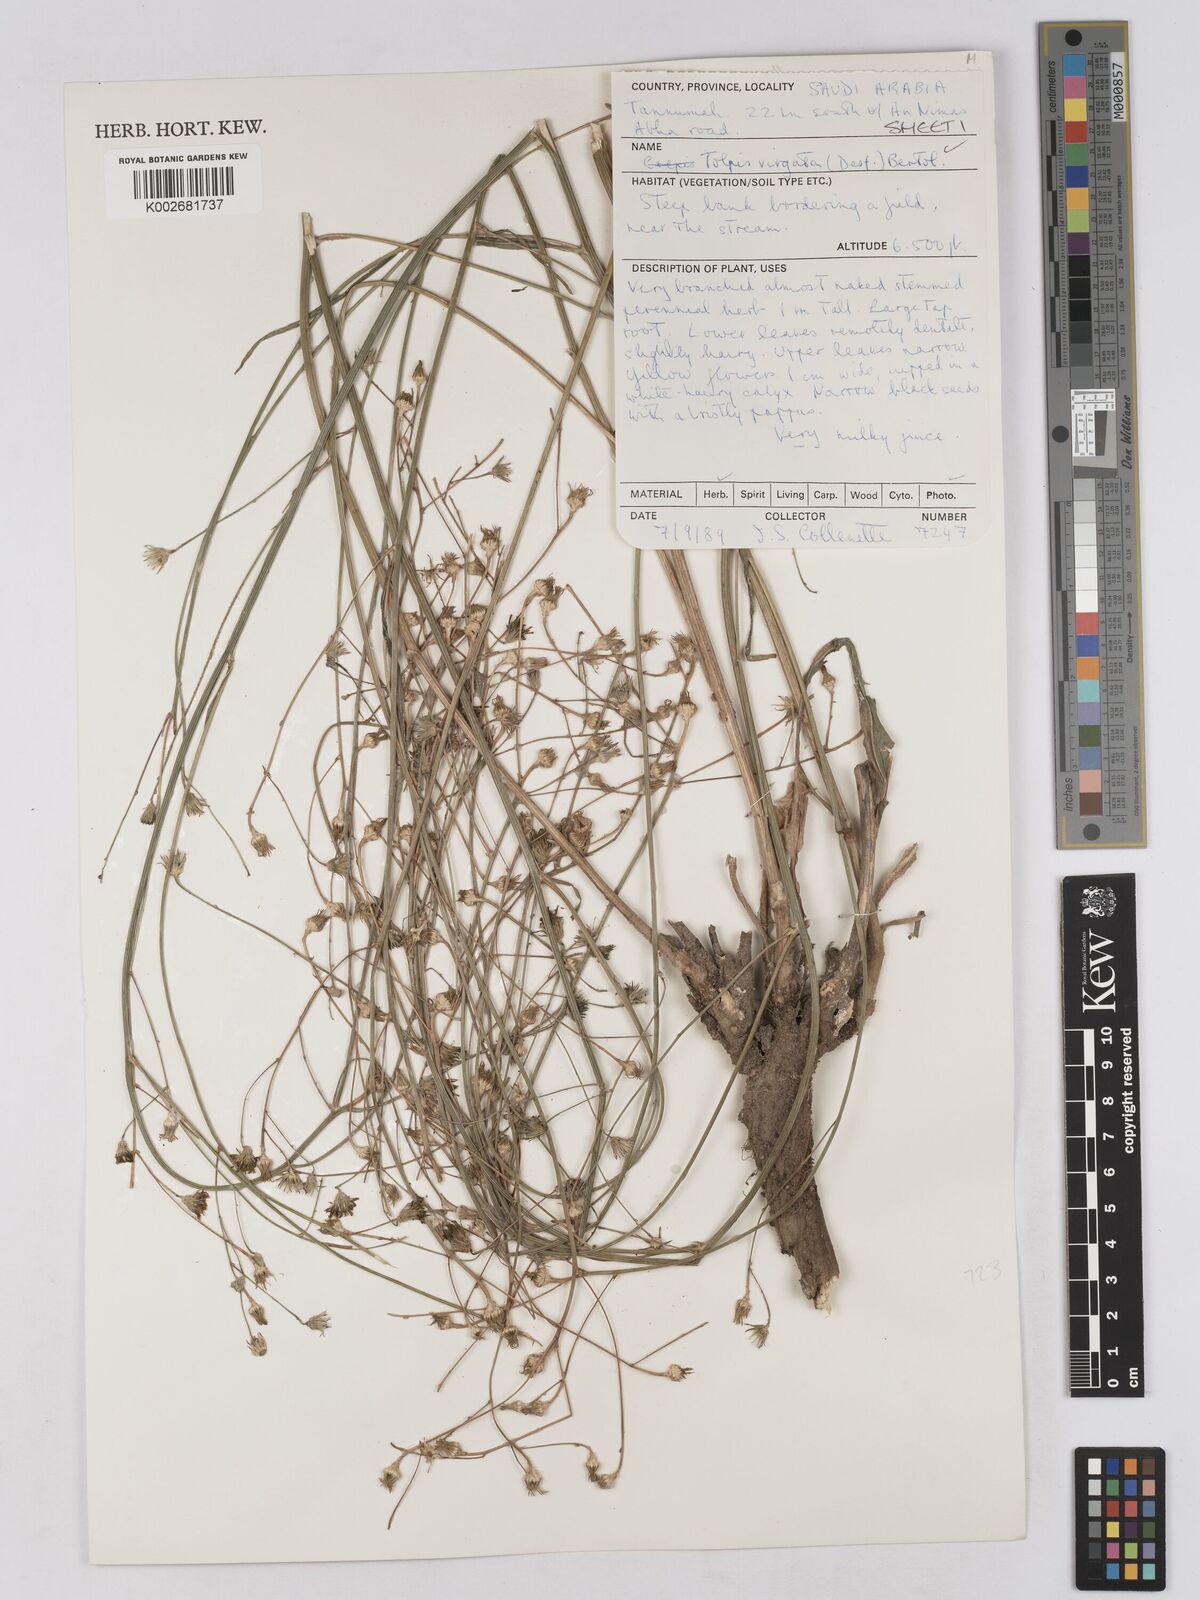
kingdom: Plantae
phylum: Tracheophyta
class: Magnoliopsida
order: Asterales
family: Asteraceae
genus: Tolpis
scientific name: Tolpis virgata
